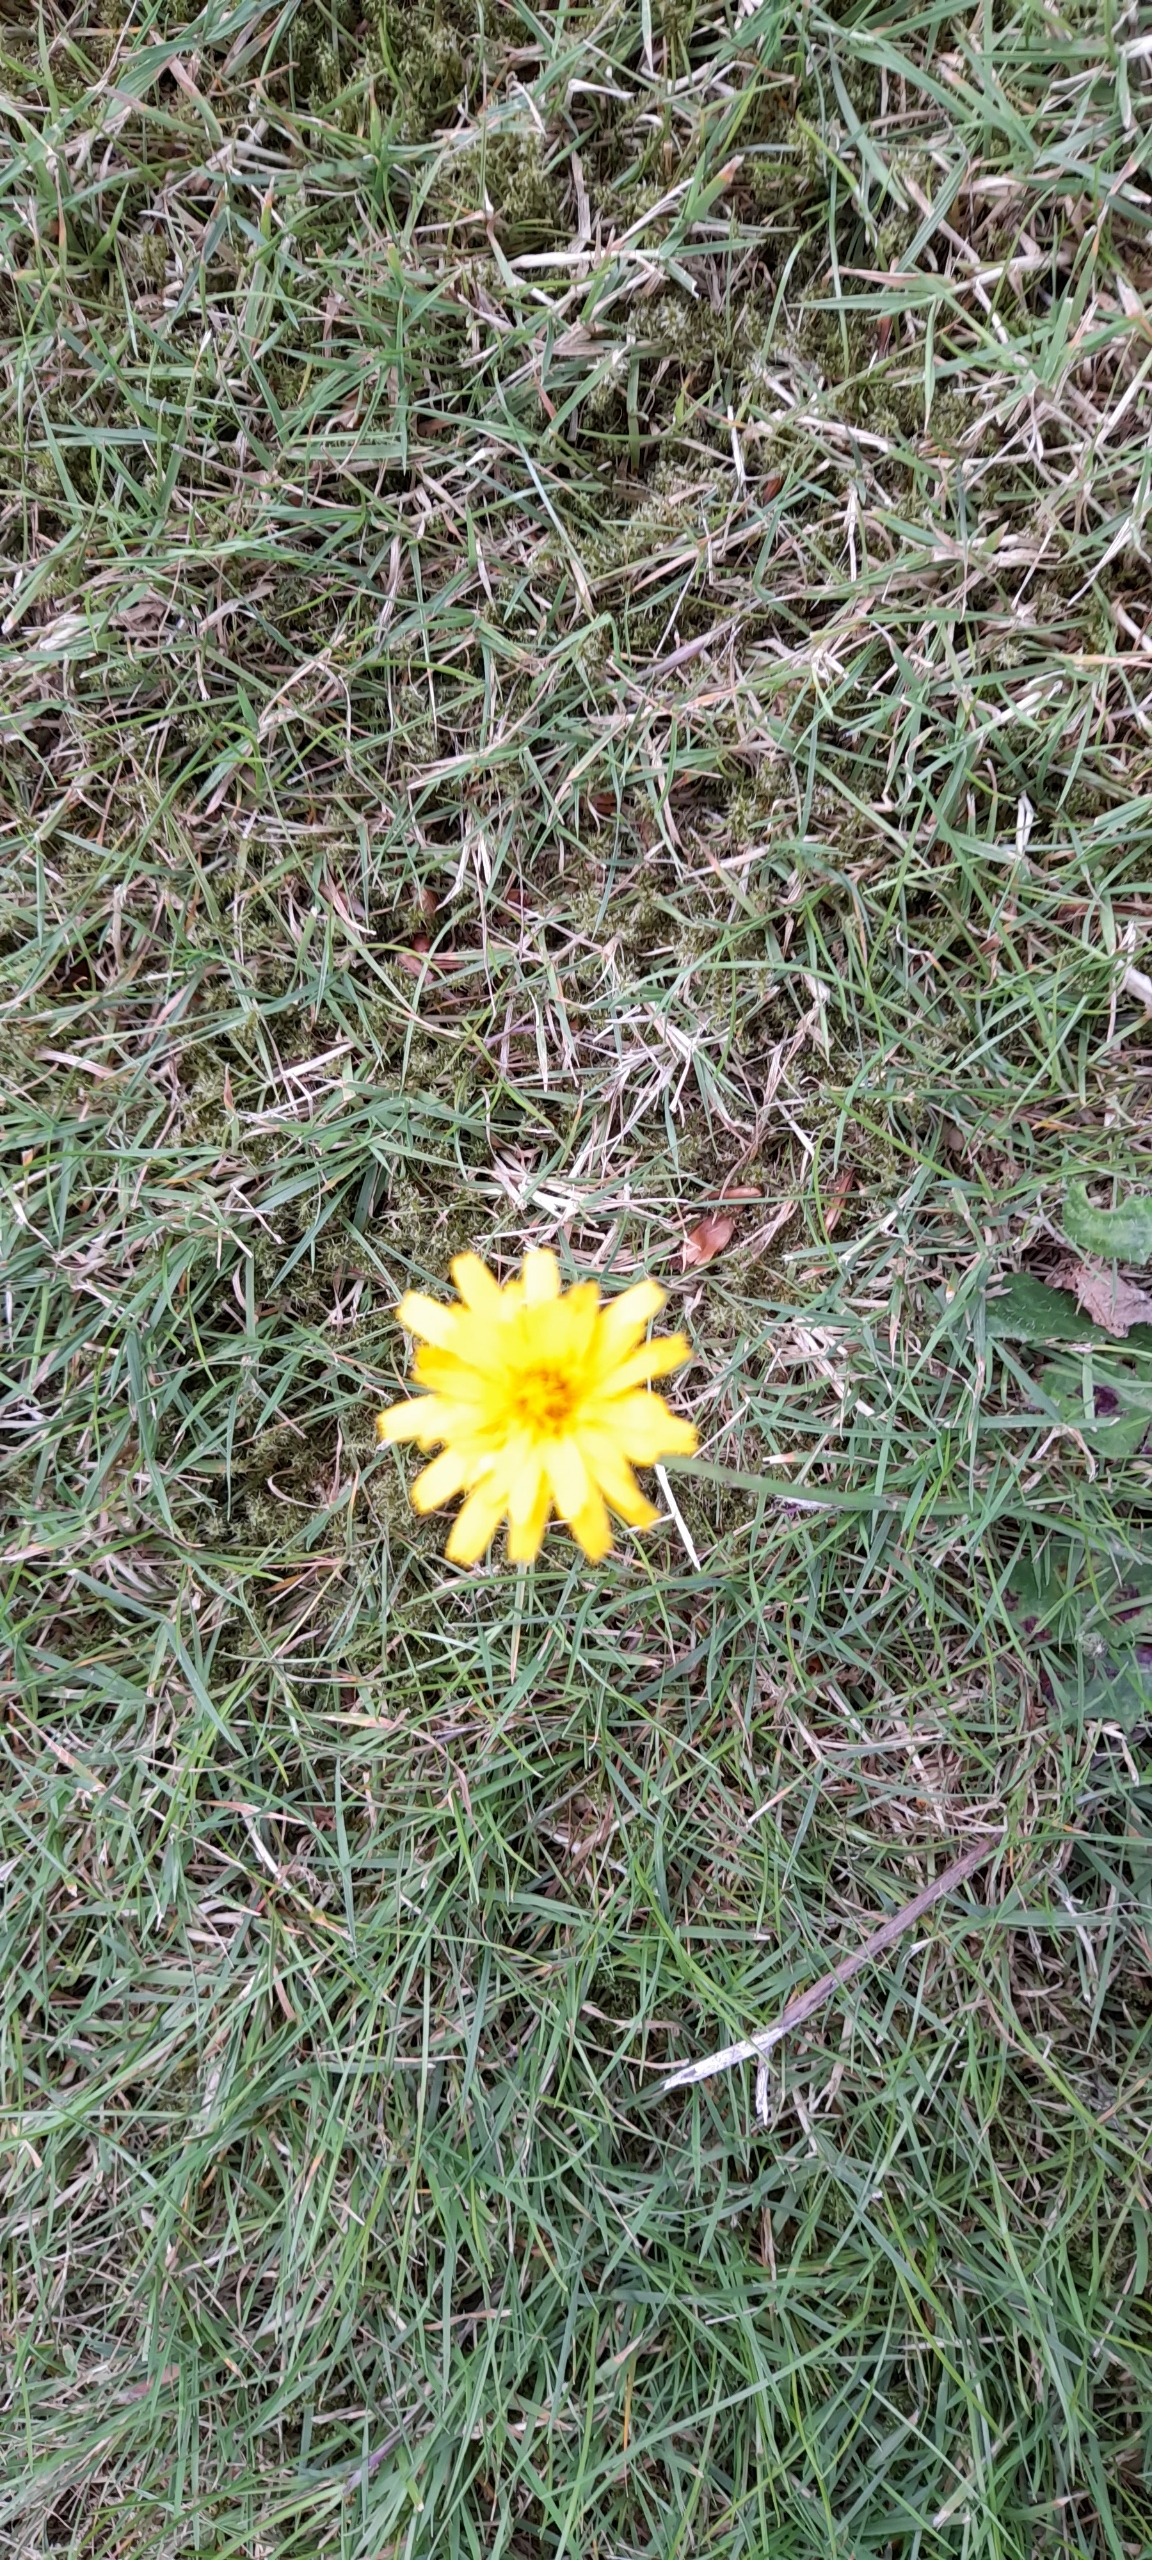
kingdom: Plantae
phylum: Tracheophyta
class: Magnoliopsida
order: Asterales
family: Asteraceae
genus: Hypochaeris
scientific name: Hypochaeris radicata
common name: Almindelig kongepen
